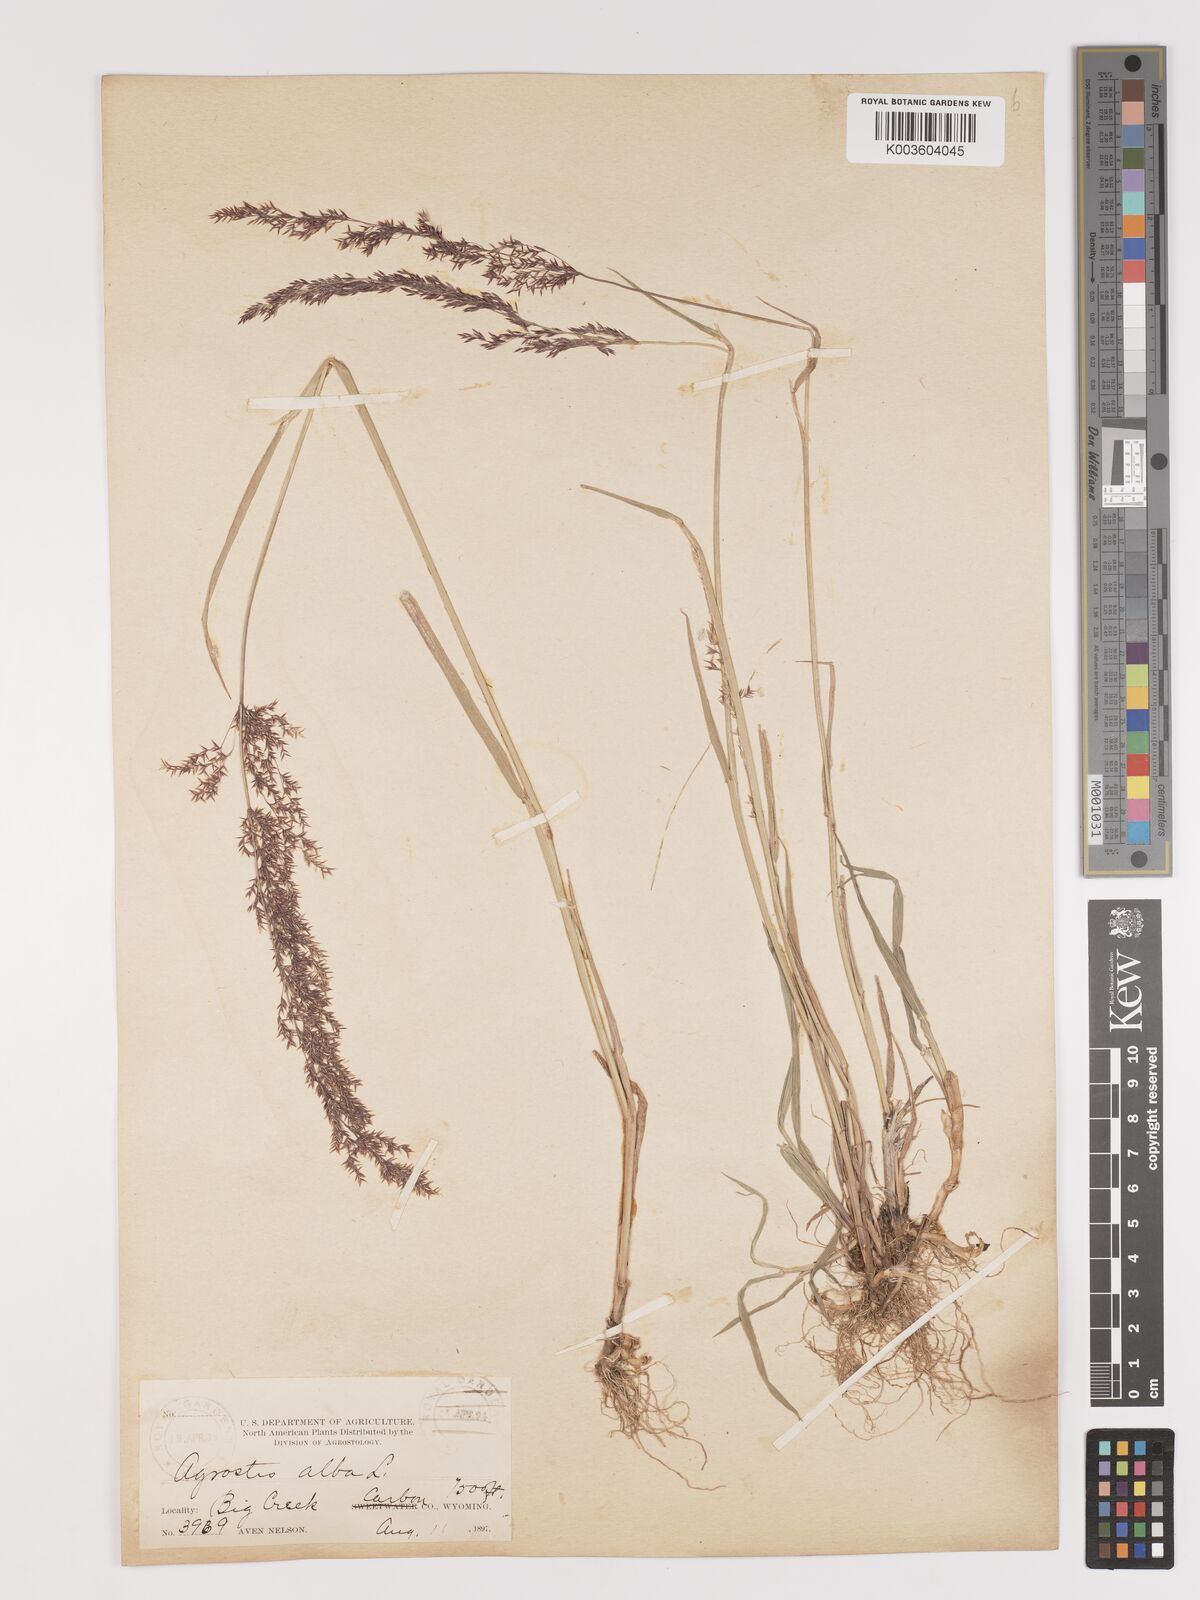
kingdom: Plantae
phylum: Tracheophyta
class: Liliopsida
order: Poales
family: Poaceae
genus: Agrostis
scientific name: Agrostis gigantea
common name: Black bent
